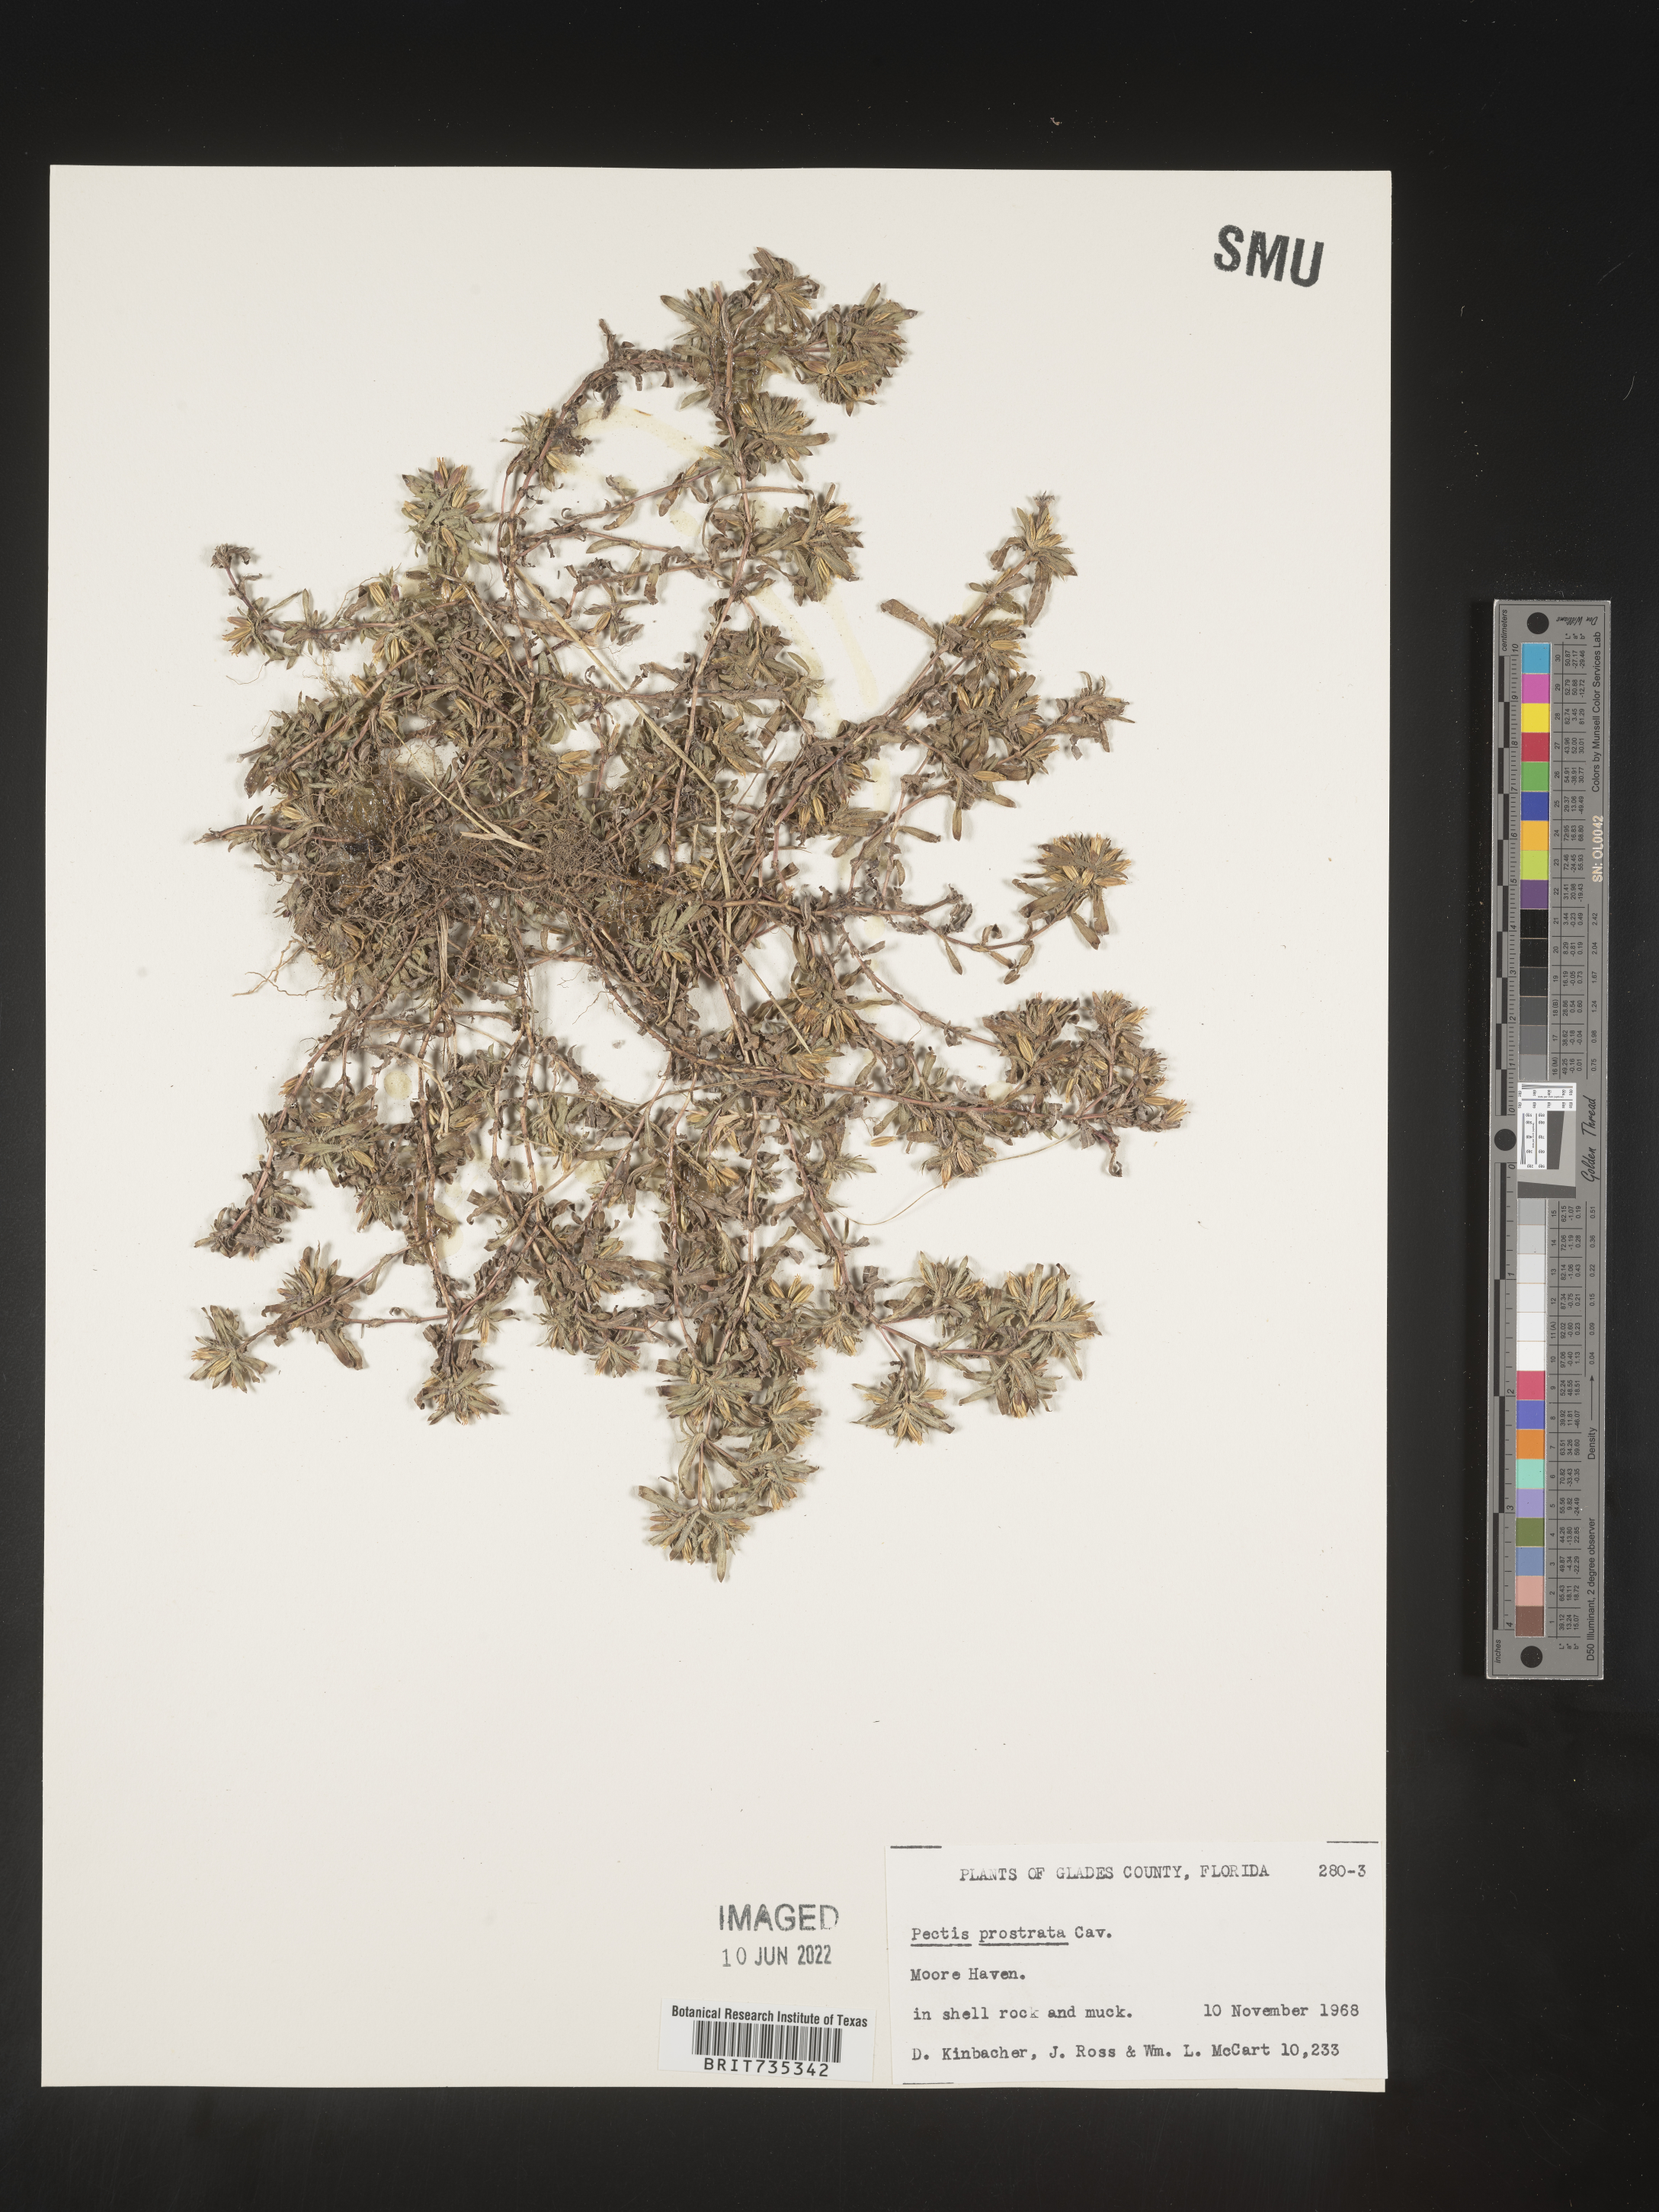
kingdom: Plantae
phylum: Tracheophyta
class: Magnoliopsida
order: Asterales
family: Asteraceae
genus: Pectis
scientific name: Pectis prostrata
